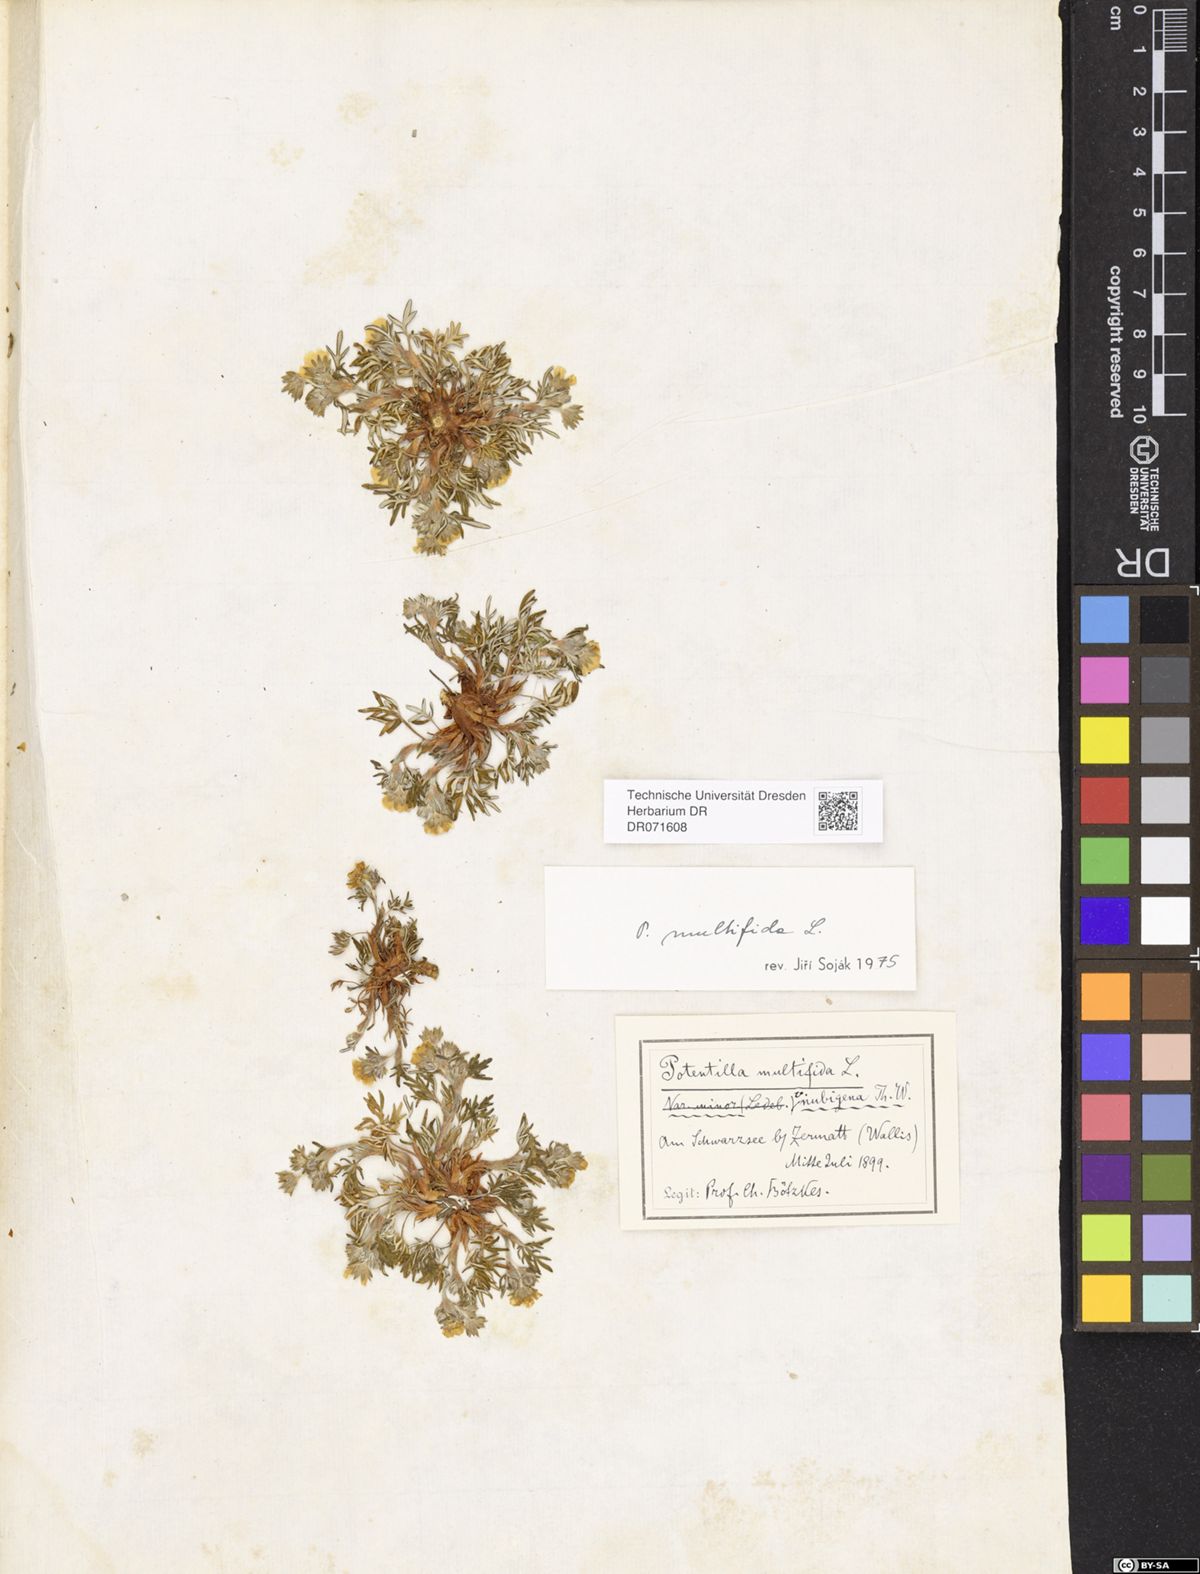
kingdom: Plantae
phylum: Tracheophyta
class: Magnoliopsida
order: Rosales
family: Rosaceae
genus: Potentilla
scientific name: Potentilla multifida
